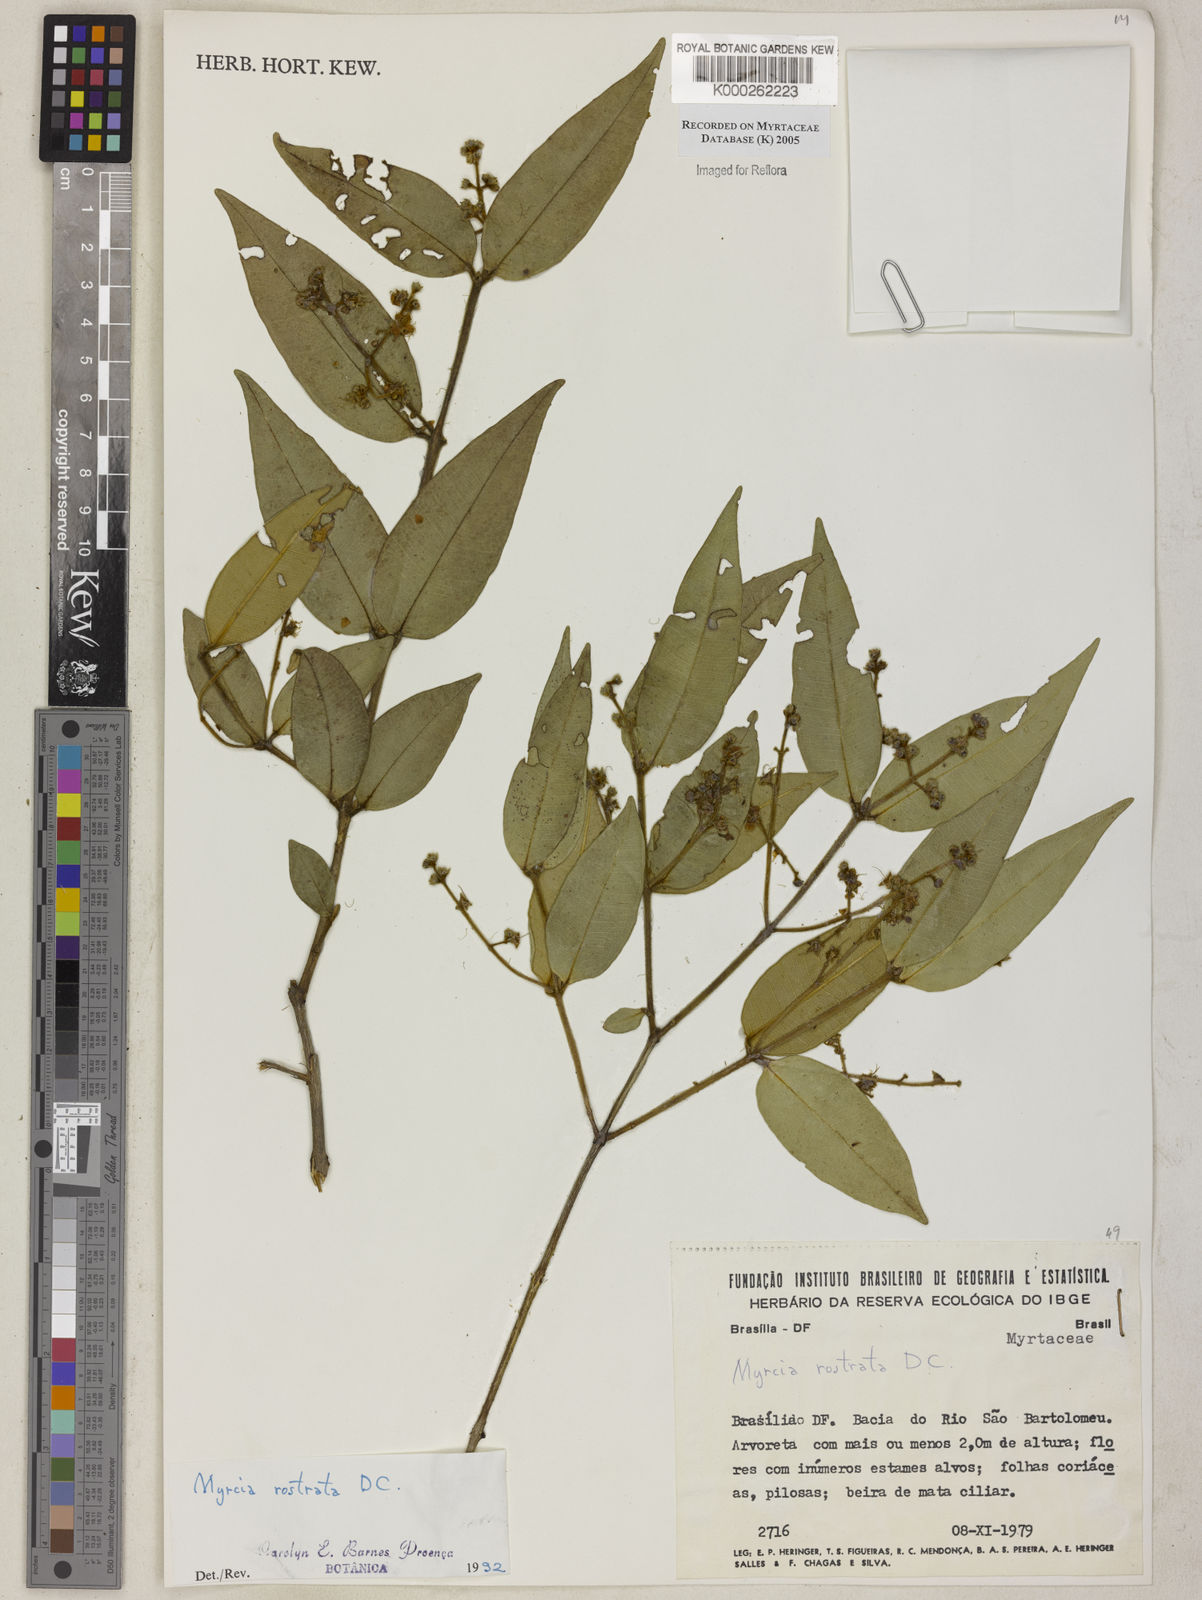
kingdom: Plantae
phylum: Tracheophyta
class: Magnoliopsida
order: Myrtales
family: Myrtaceae
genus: Myrcia
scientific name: Myrcia splendens
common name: Surinam cherry
